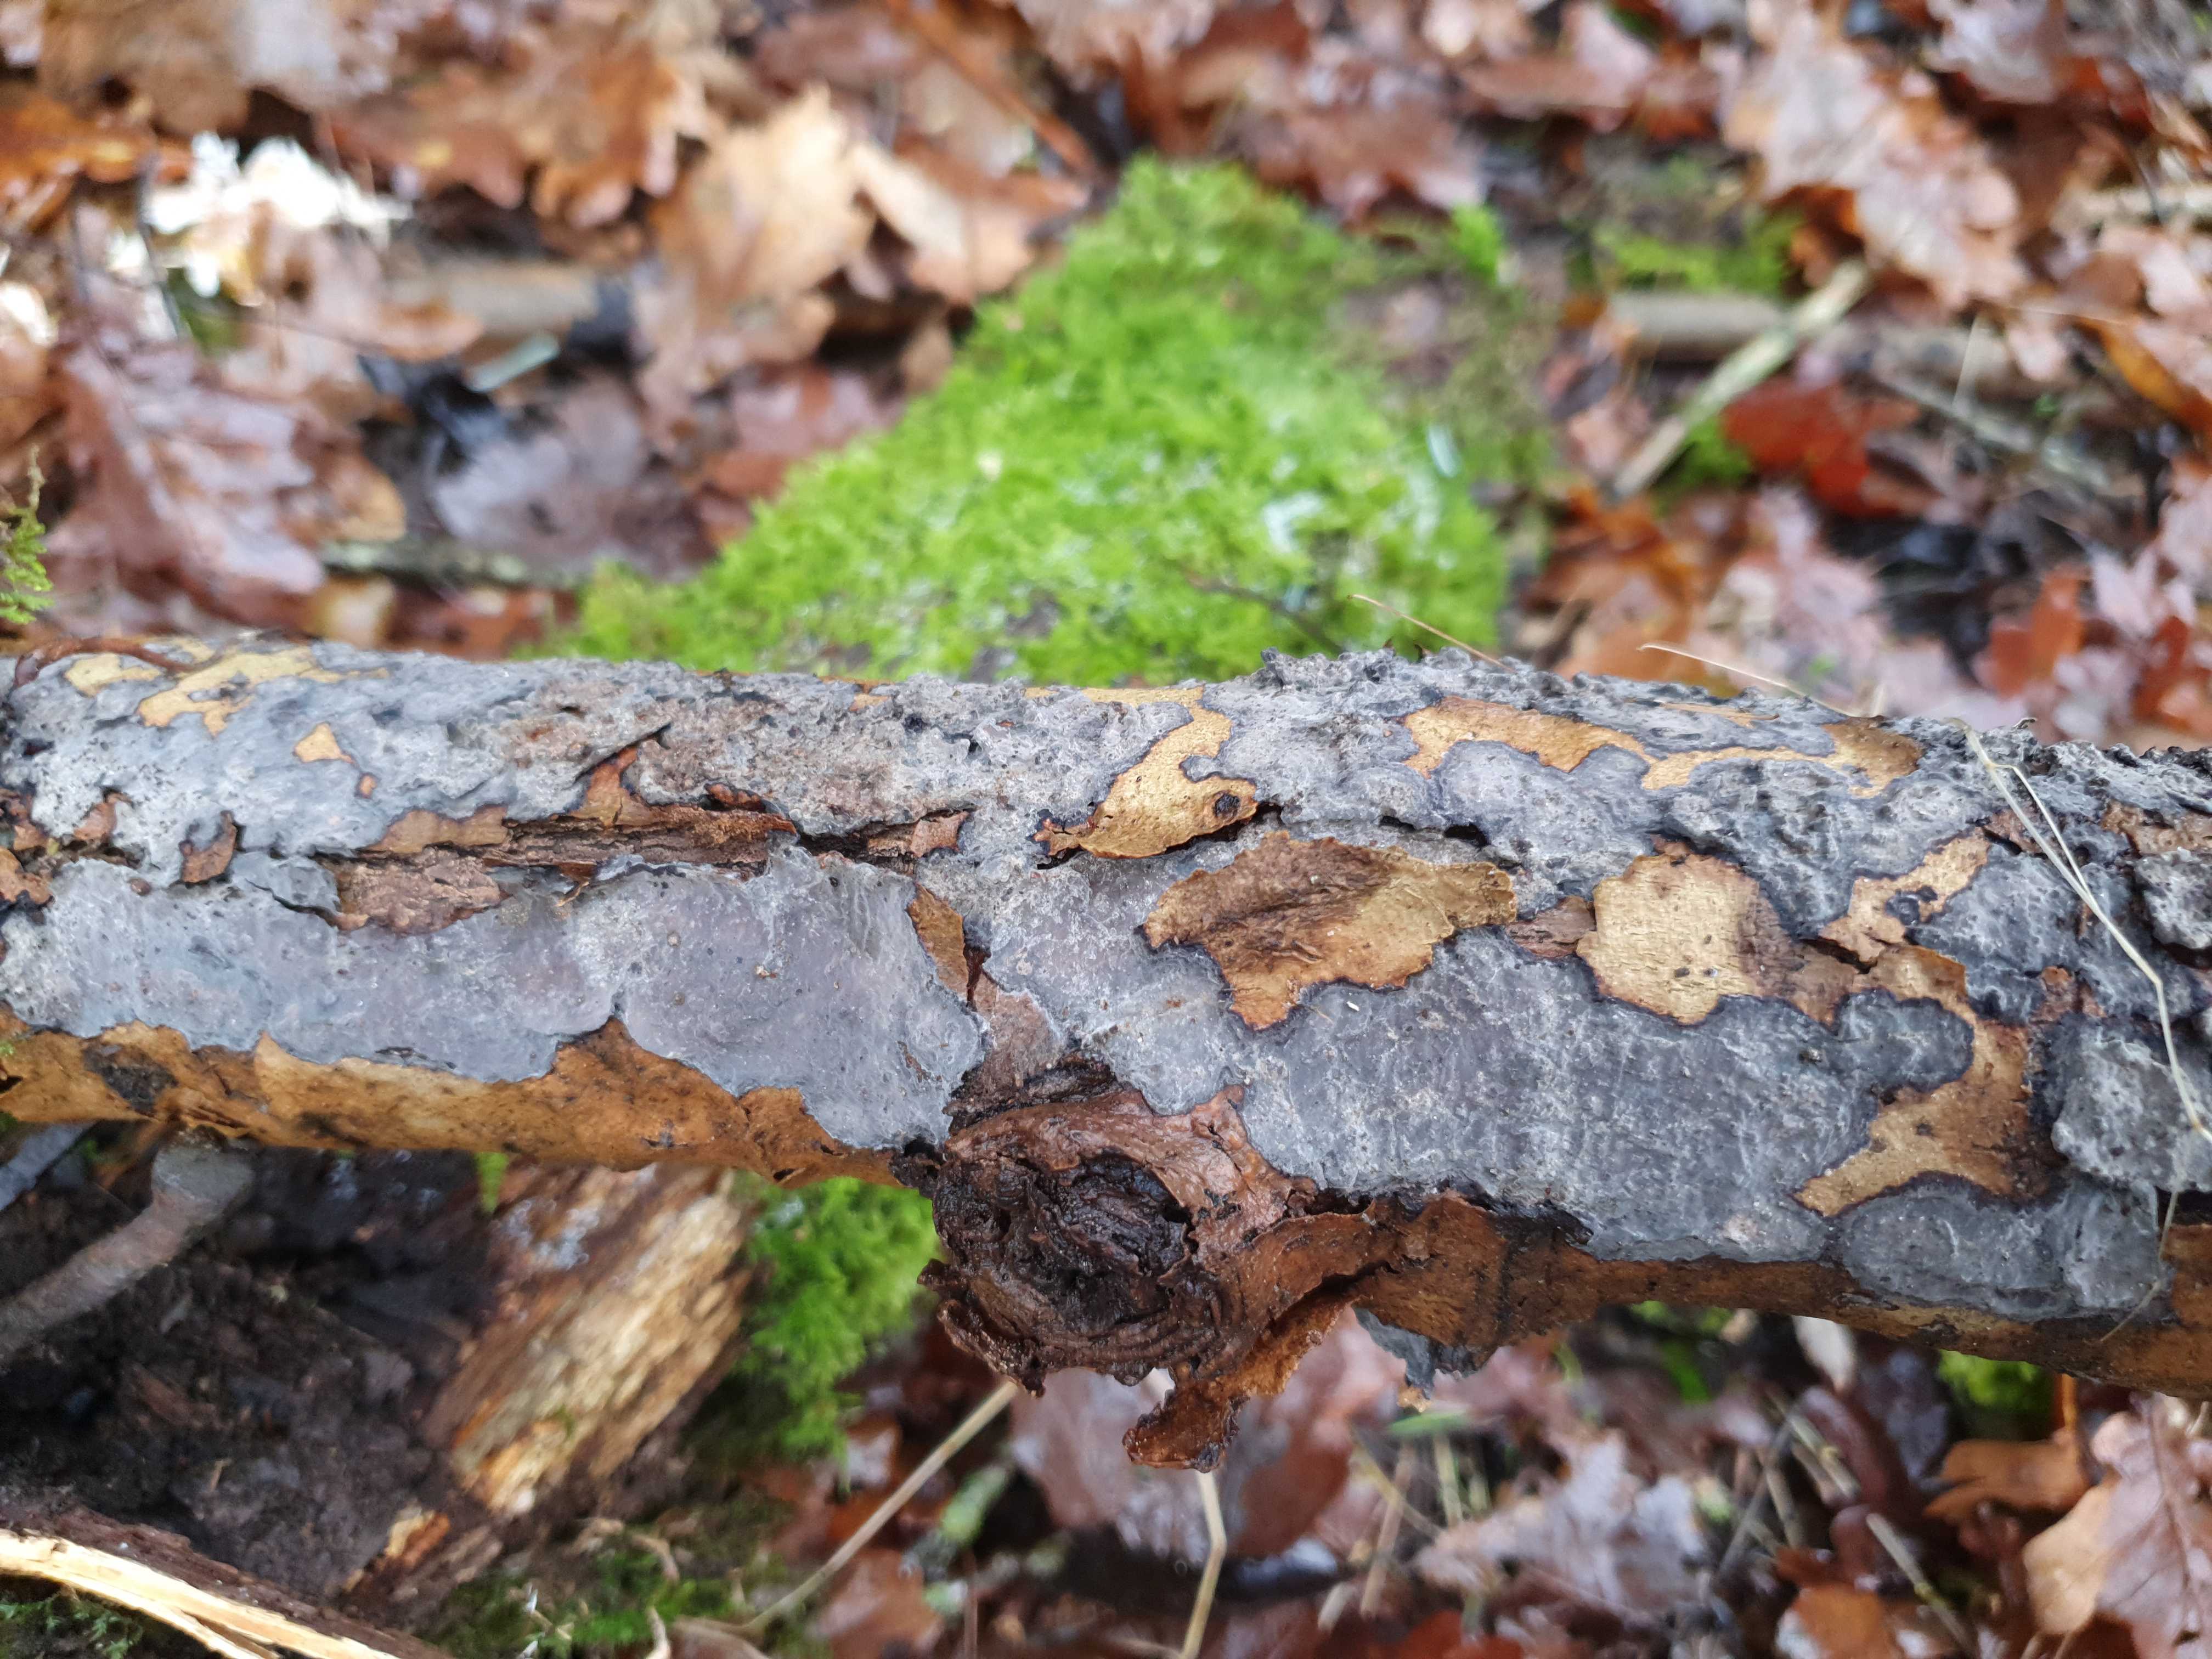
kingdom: Fungi
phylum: Basidiomycota
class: Agaricomycetes
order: Russulales
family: Peniophoraceae
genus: Peniophora
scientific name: Peniophora quercina
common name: ege-voksskind
